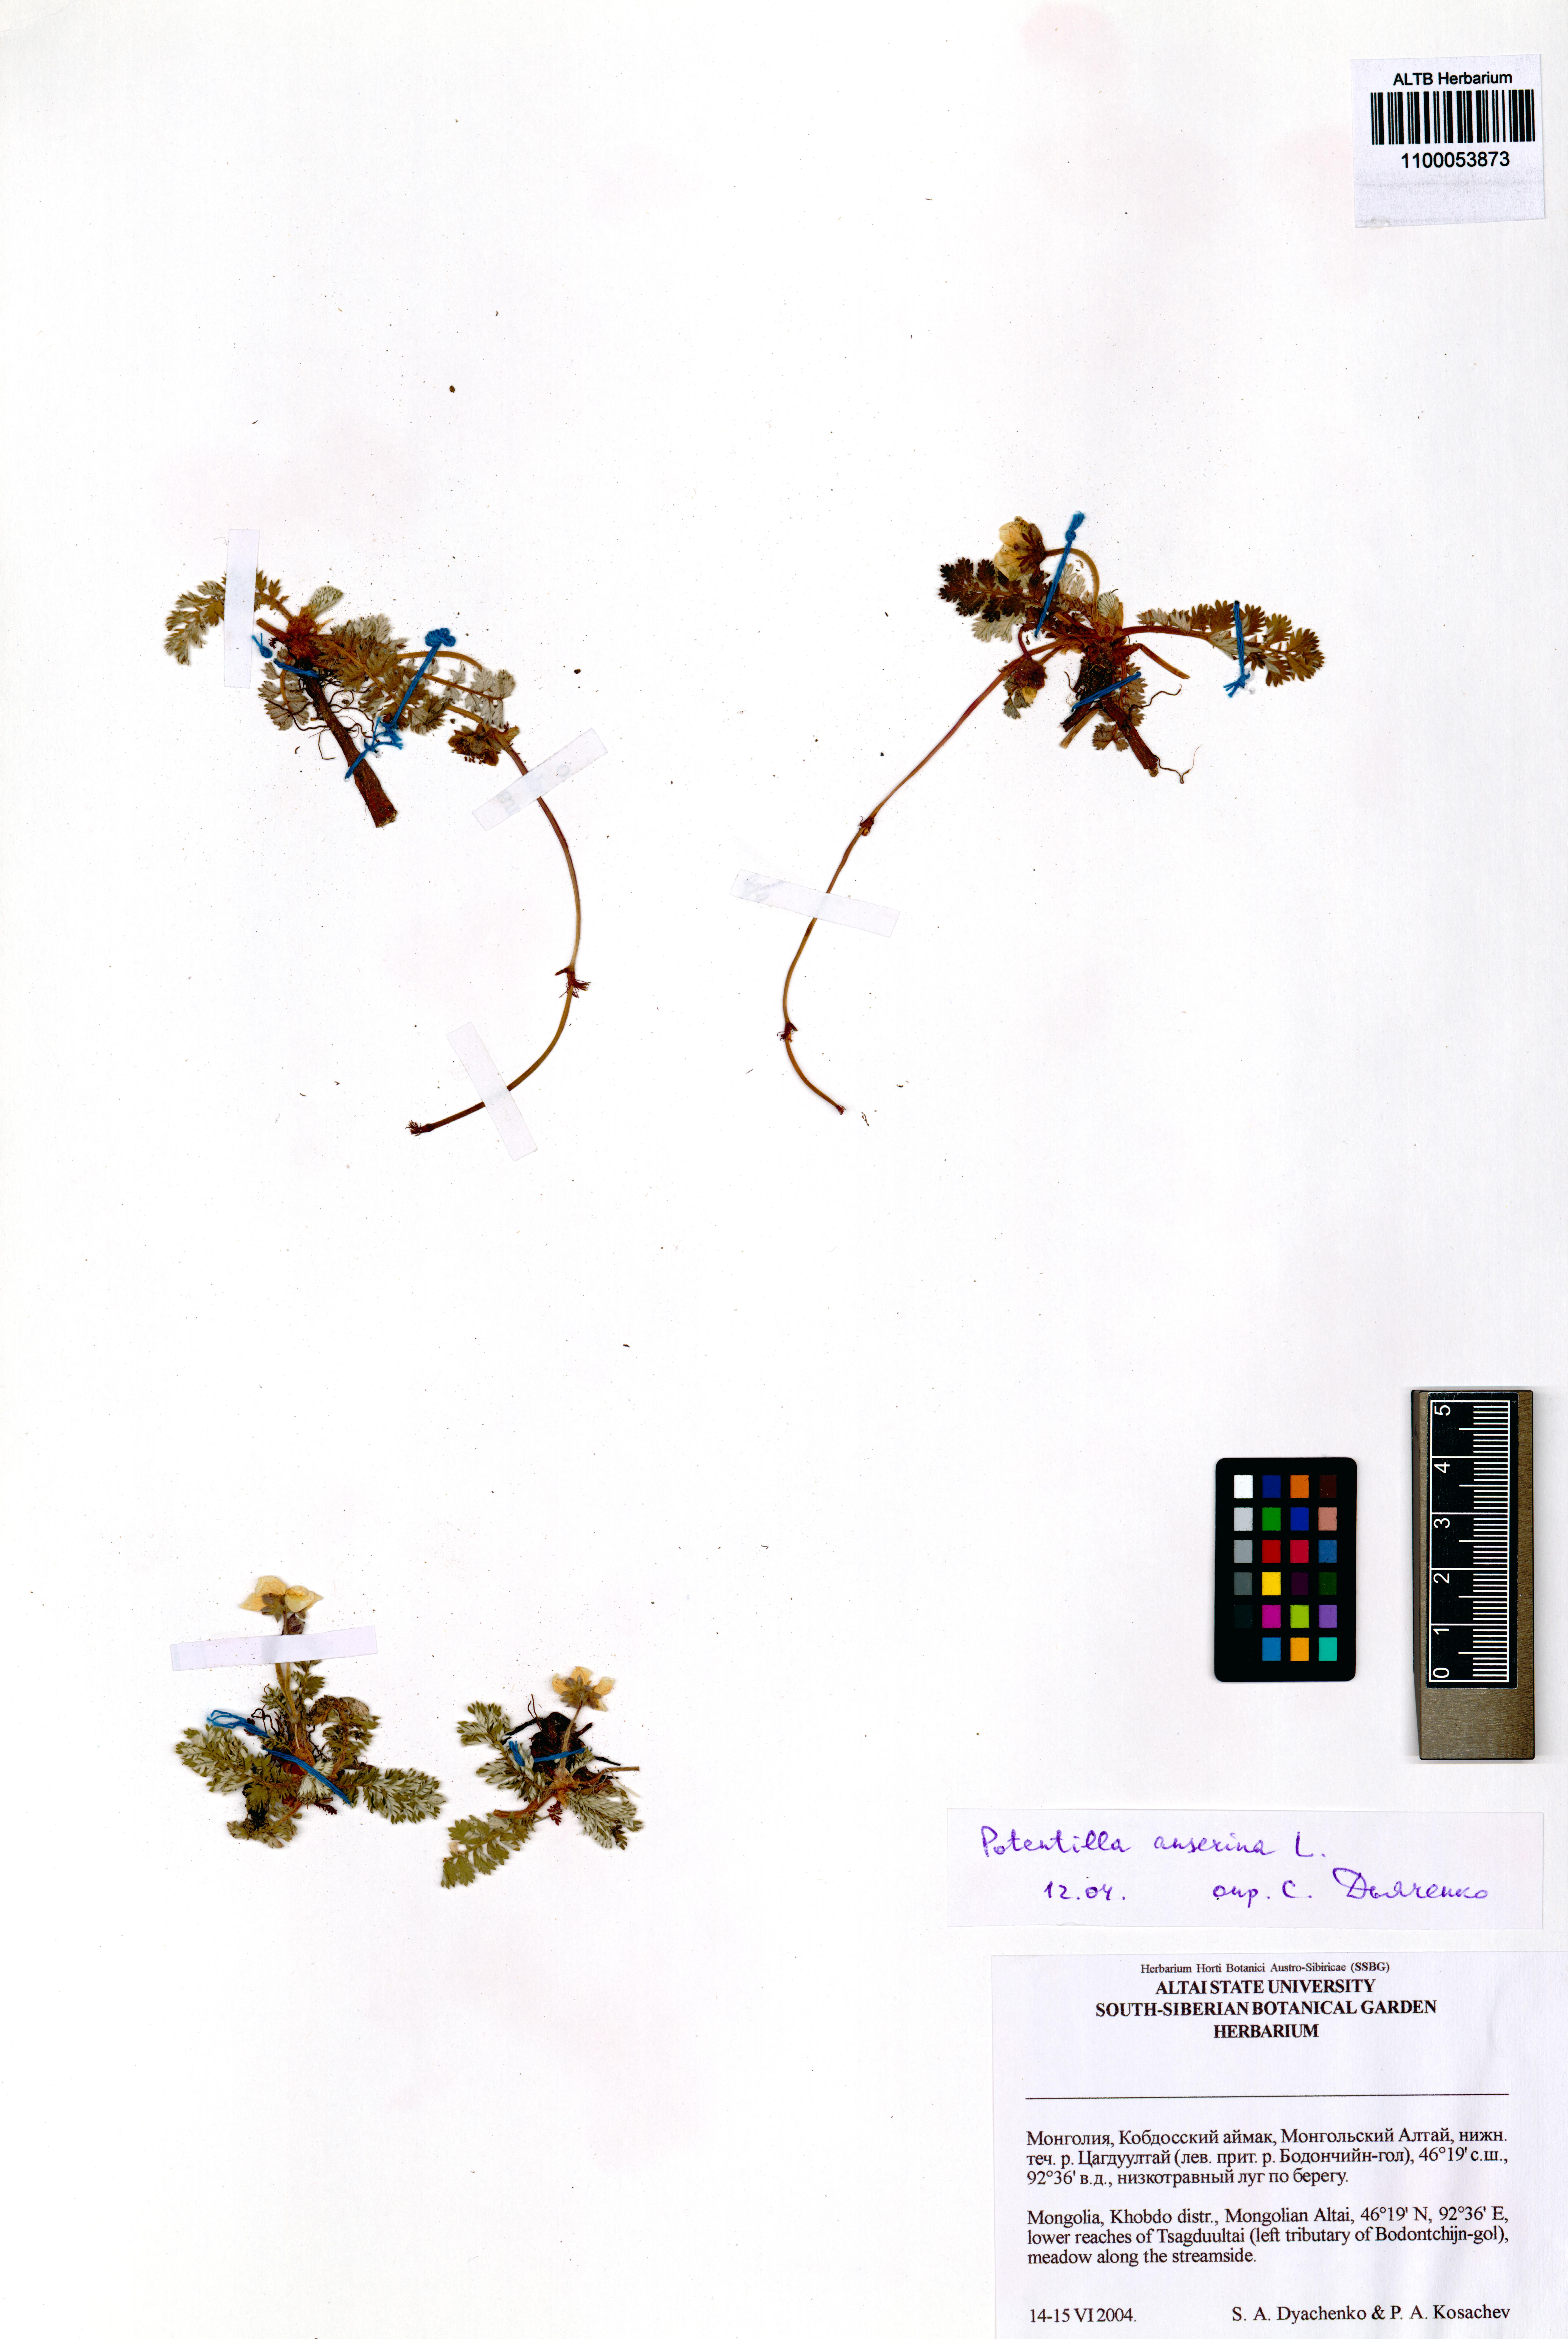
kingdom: Plantae
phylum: Tracheophyta
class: Magnoliopsida
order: Rosales
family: Rosaceae
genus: Argentina
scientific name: Argentina anserina
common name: Common silverweed
